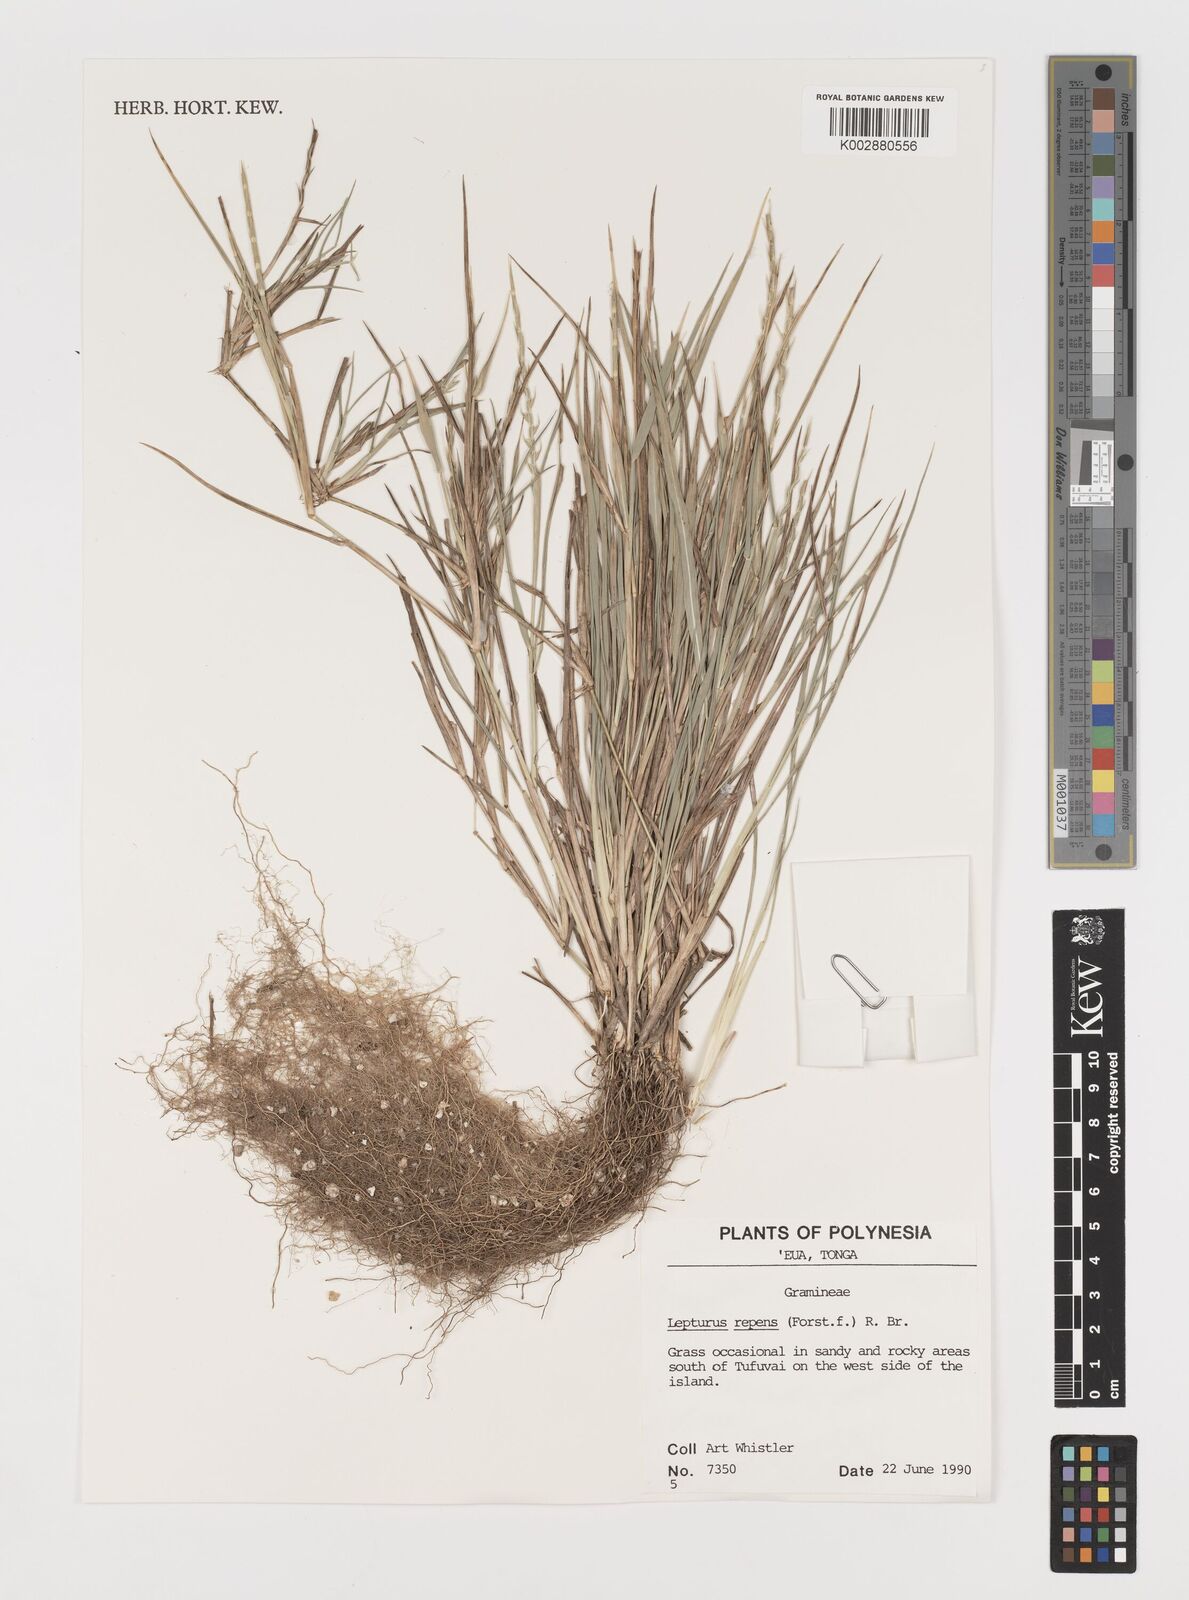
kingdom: Plantae
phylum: Tracheophyta
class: Liliopsida
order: Poales
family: Poaceae
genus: Lepturus
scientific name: Lepturus repens
